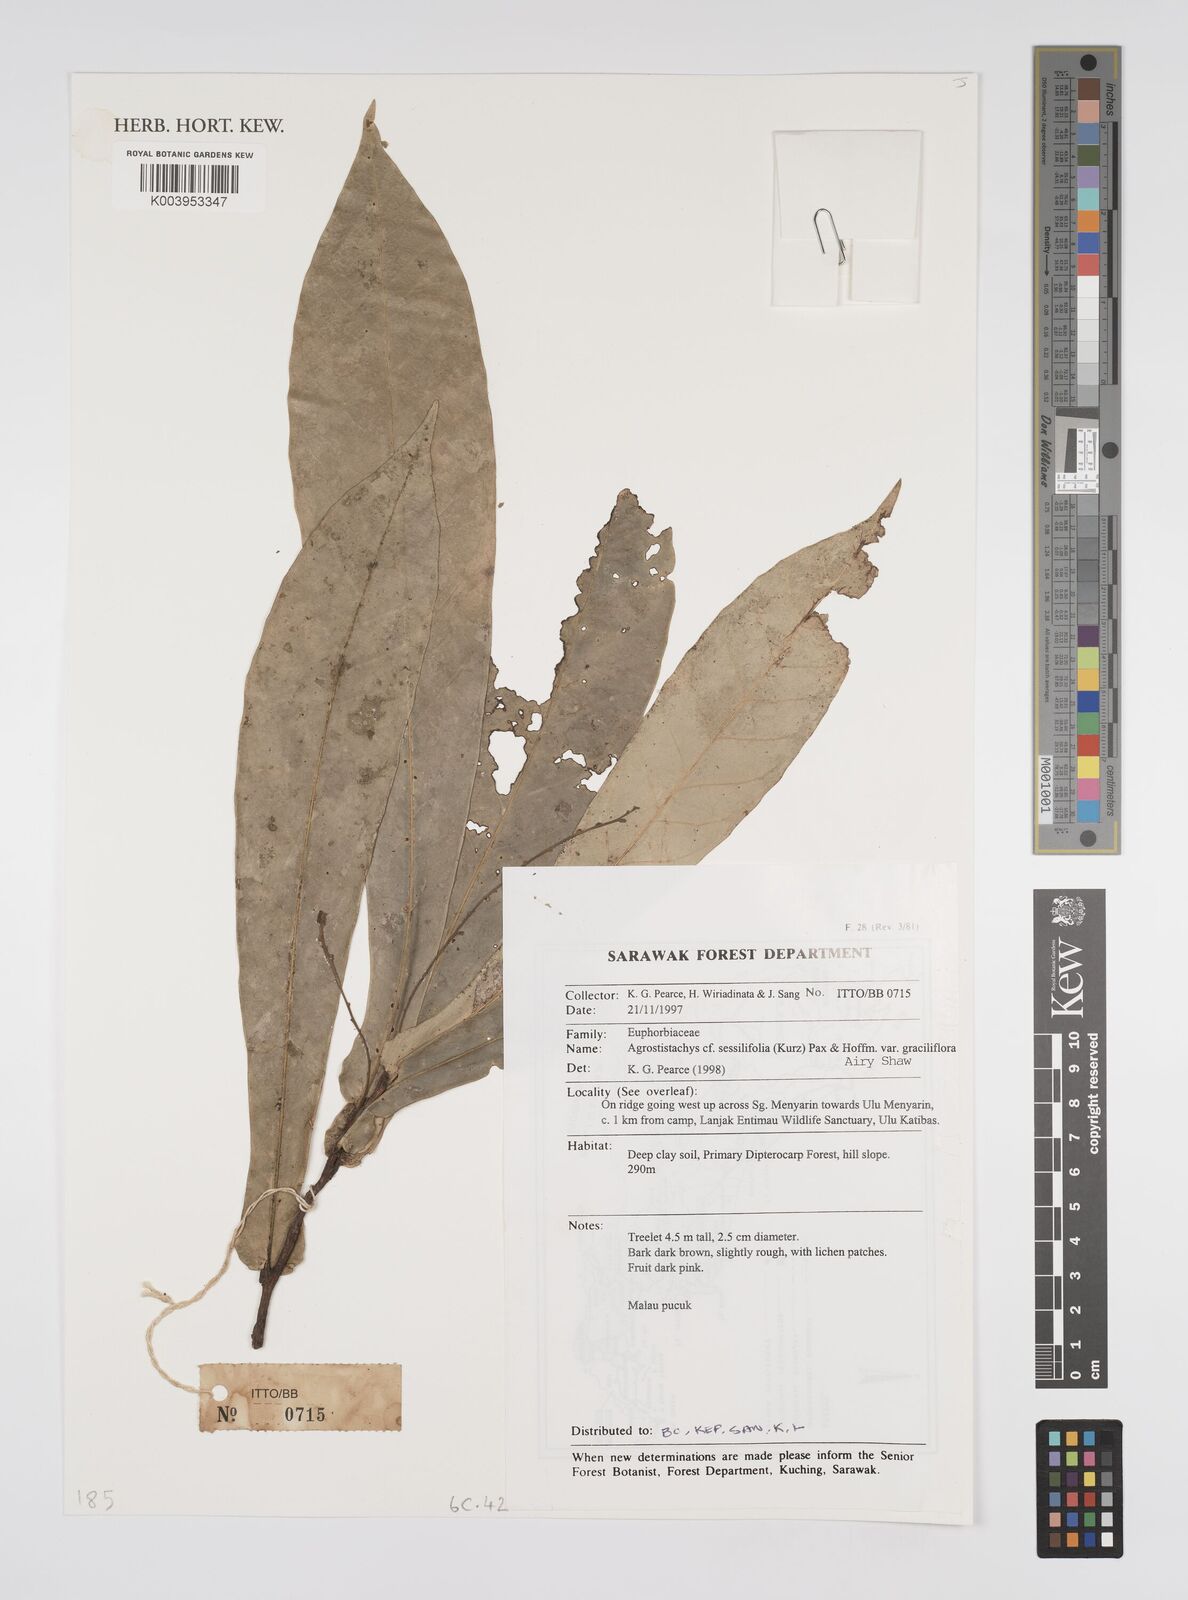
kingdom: Plantae
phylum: Tracheophyta
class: Magnoliopsida
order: Malpighiales
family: Euphorbiaceae
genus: Agrostistachys
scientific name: Agrostistachys sessilifolia
